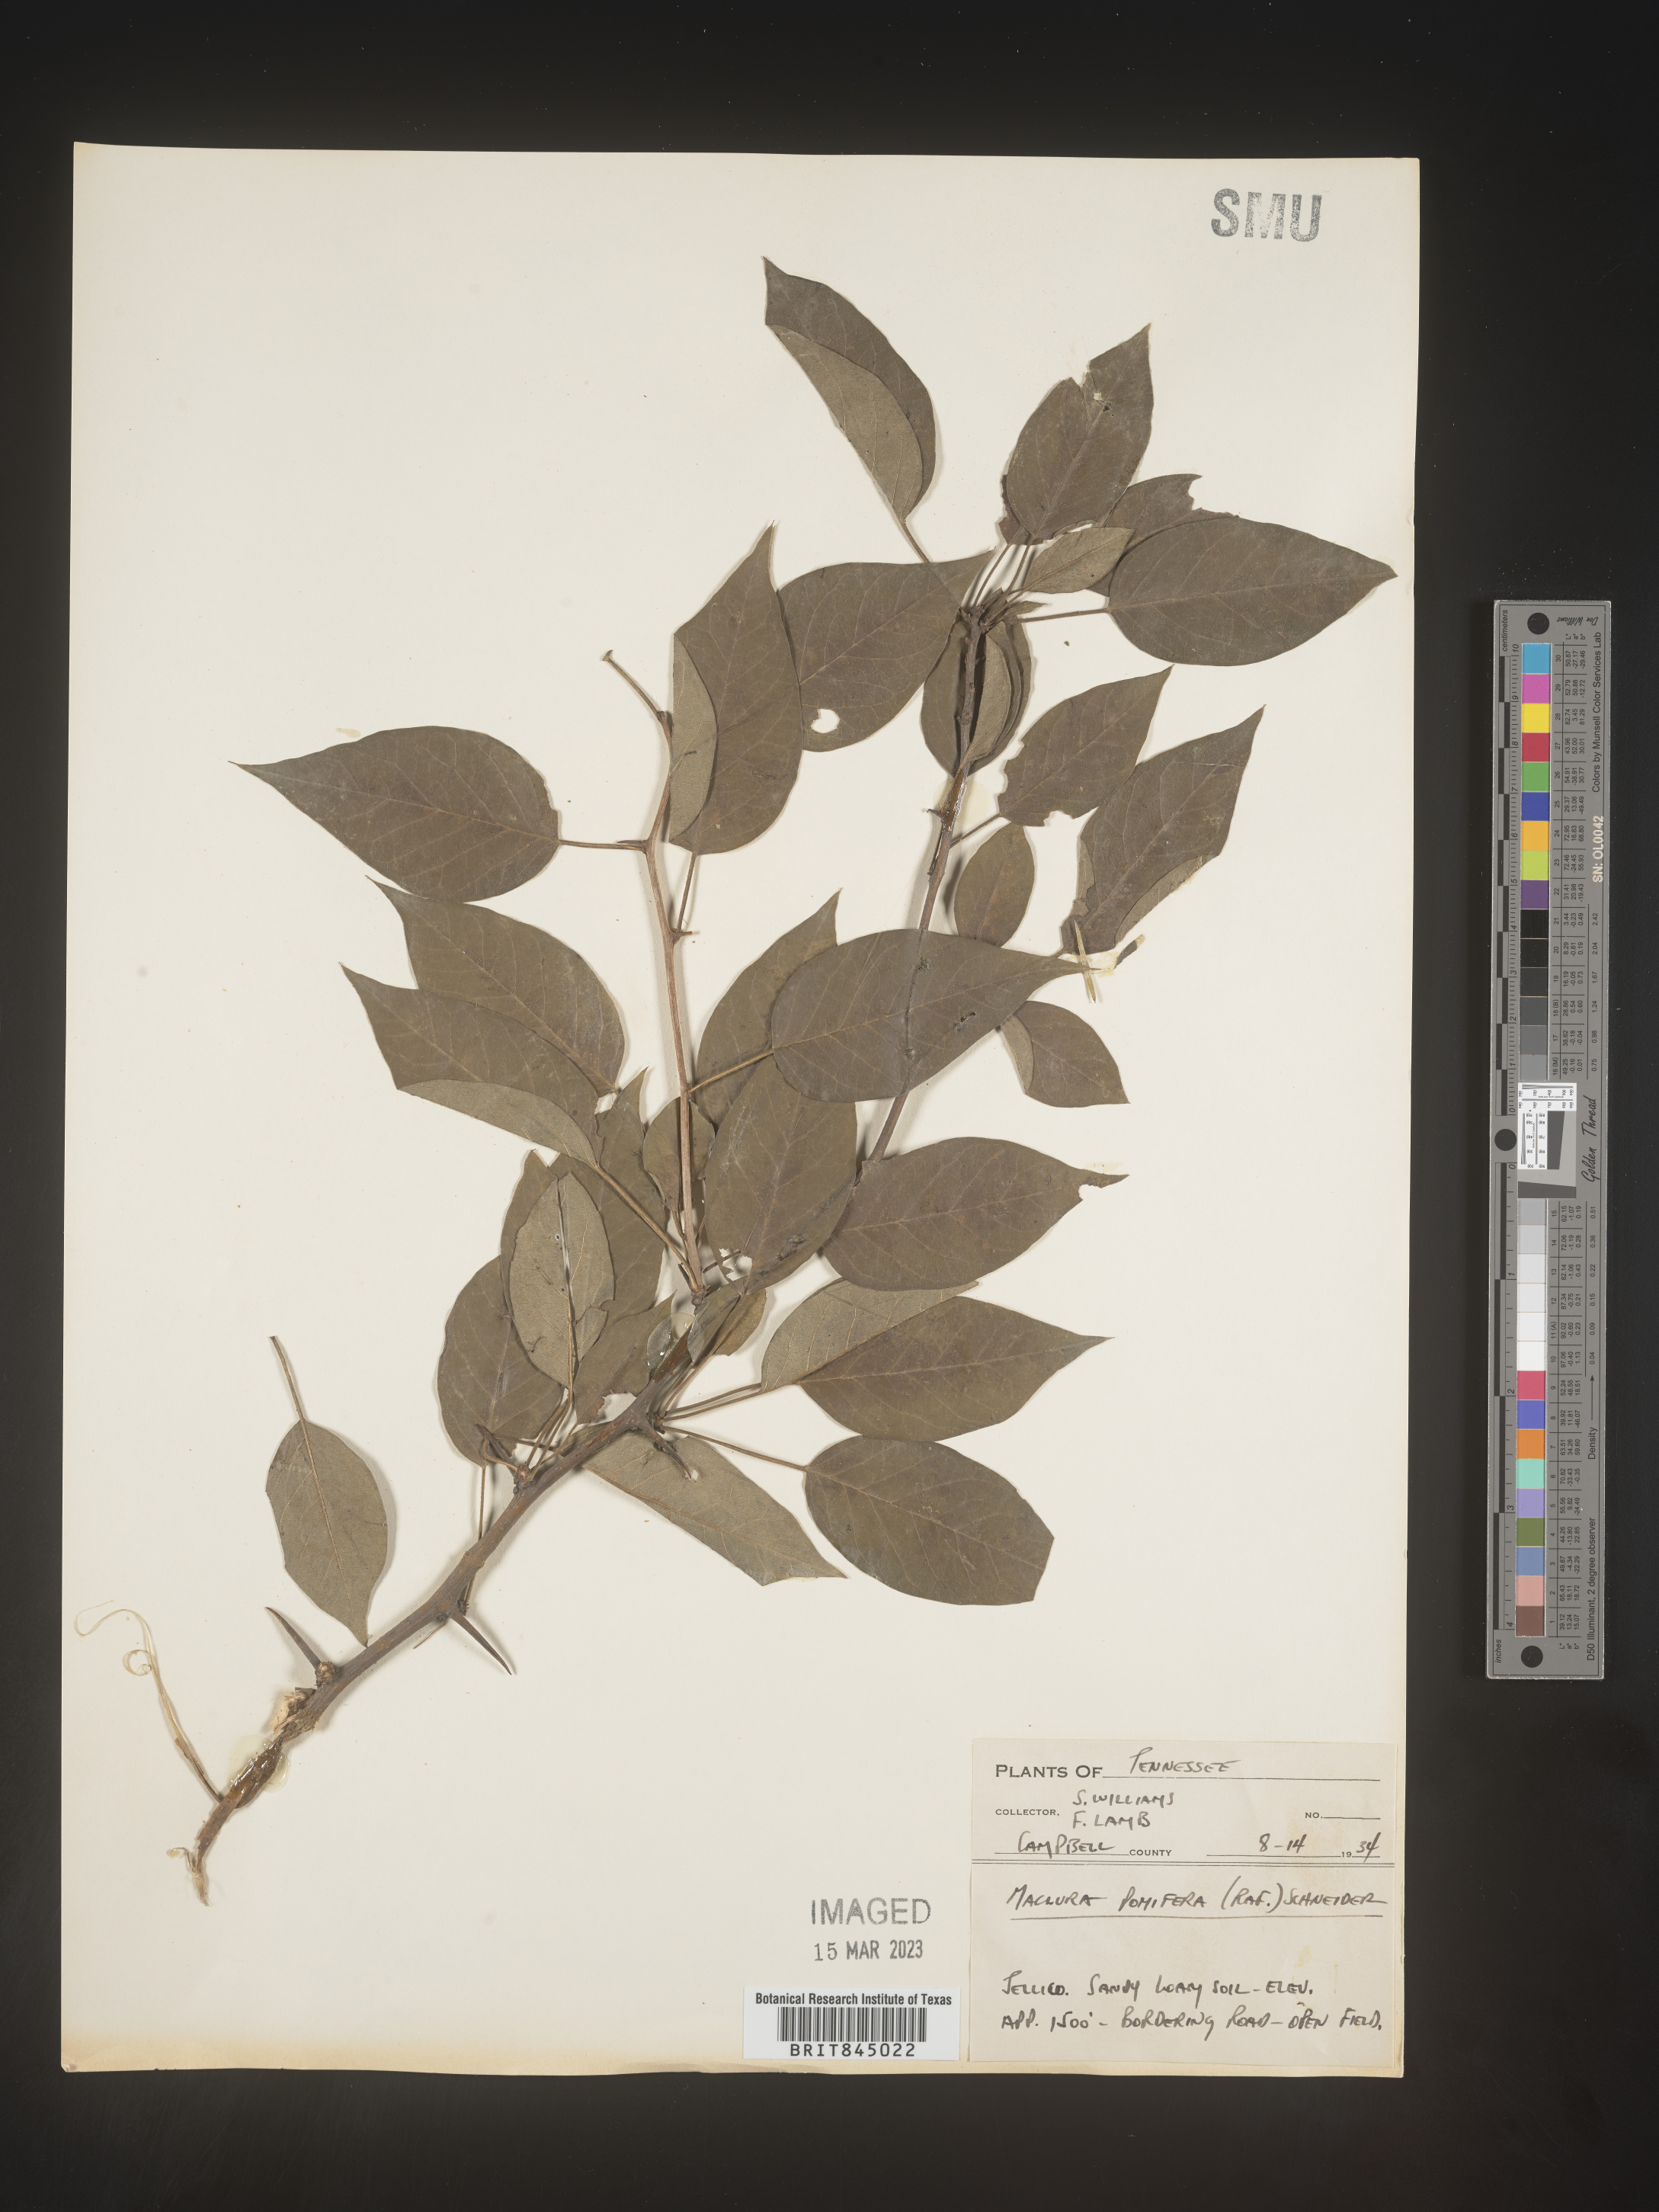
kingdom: Plantae
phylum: Tracheophyta
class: Magnoliopsida
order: Rosales
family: Moraceae
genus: Maclura
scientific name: Maclura pomifera
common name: Osage-orange
